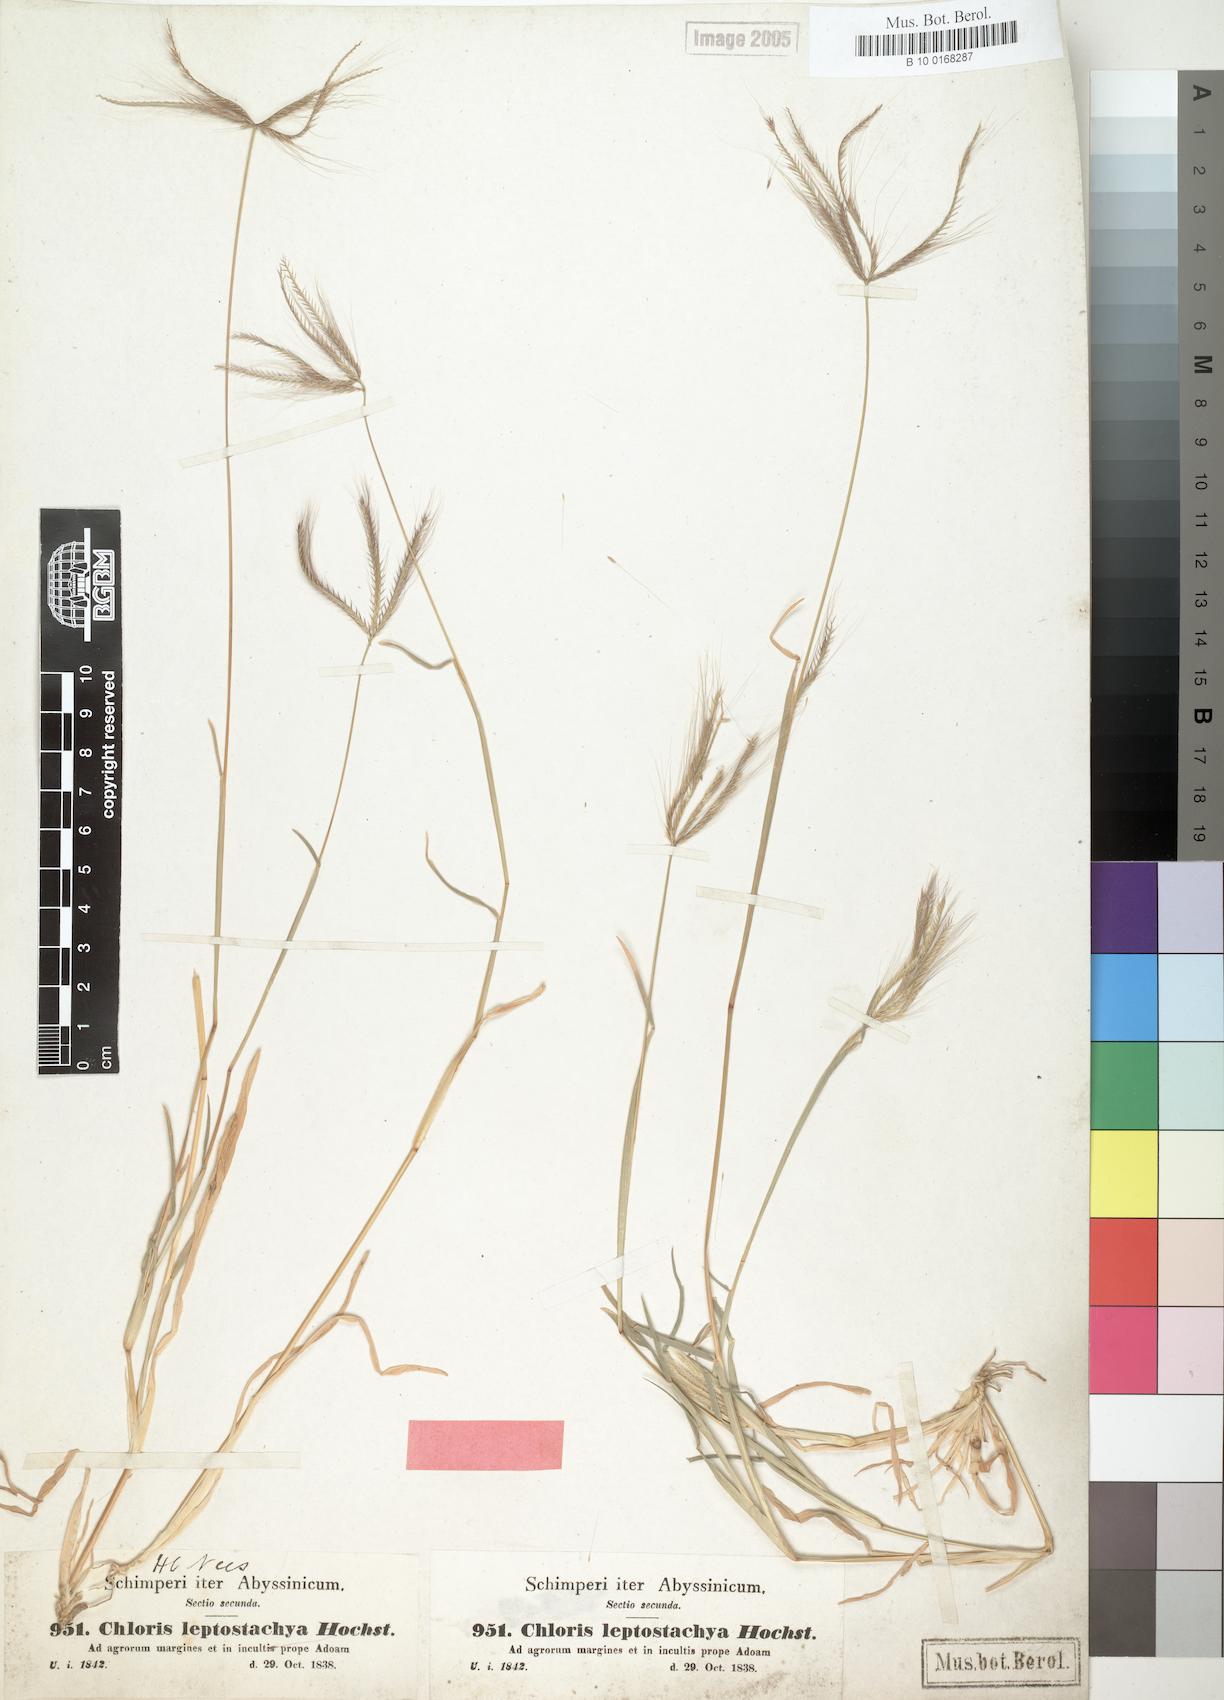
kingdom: Plantae
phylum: Tracheophyta
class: Liliopsida
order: Poales
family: Poaceae
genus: Chloris
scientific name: Chloris pycnothrix
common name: Spiderweb chloris
